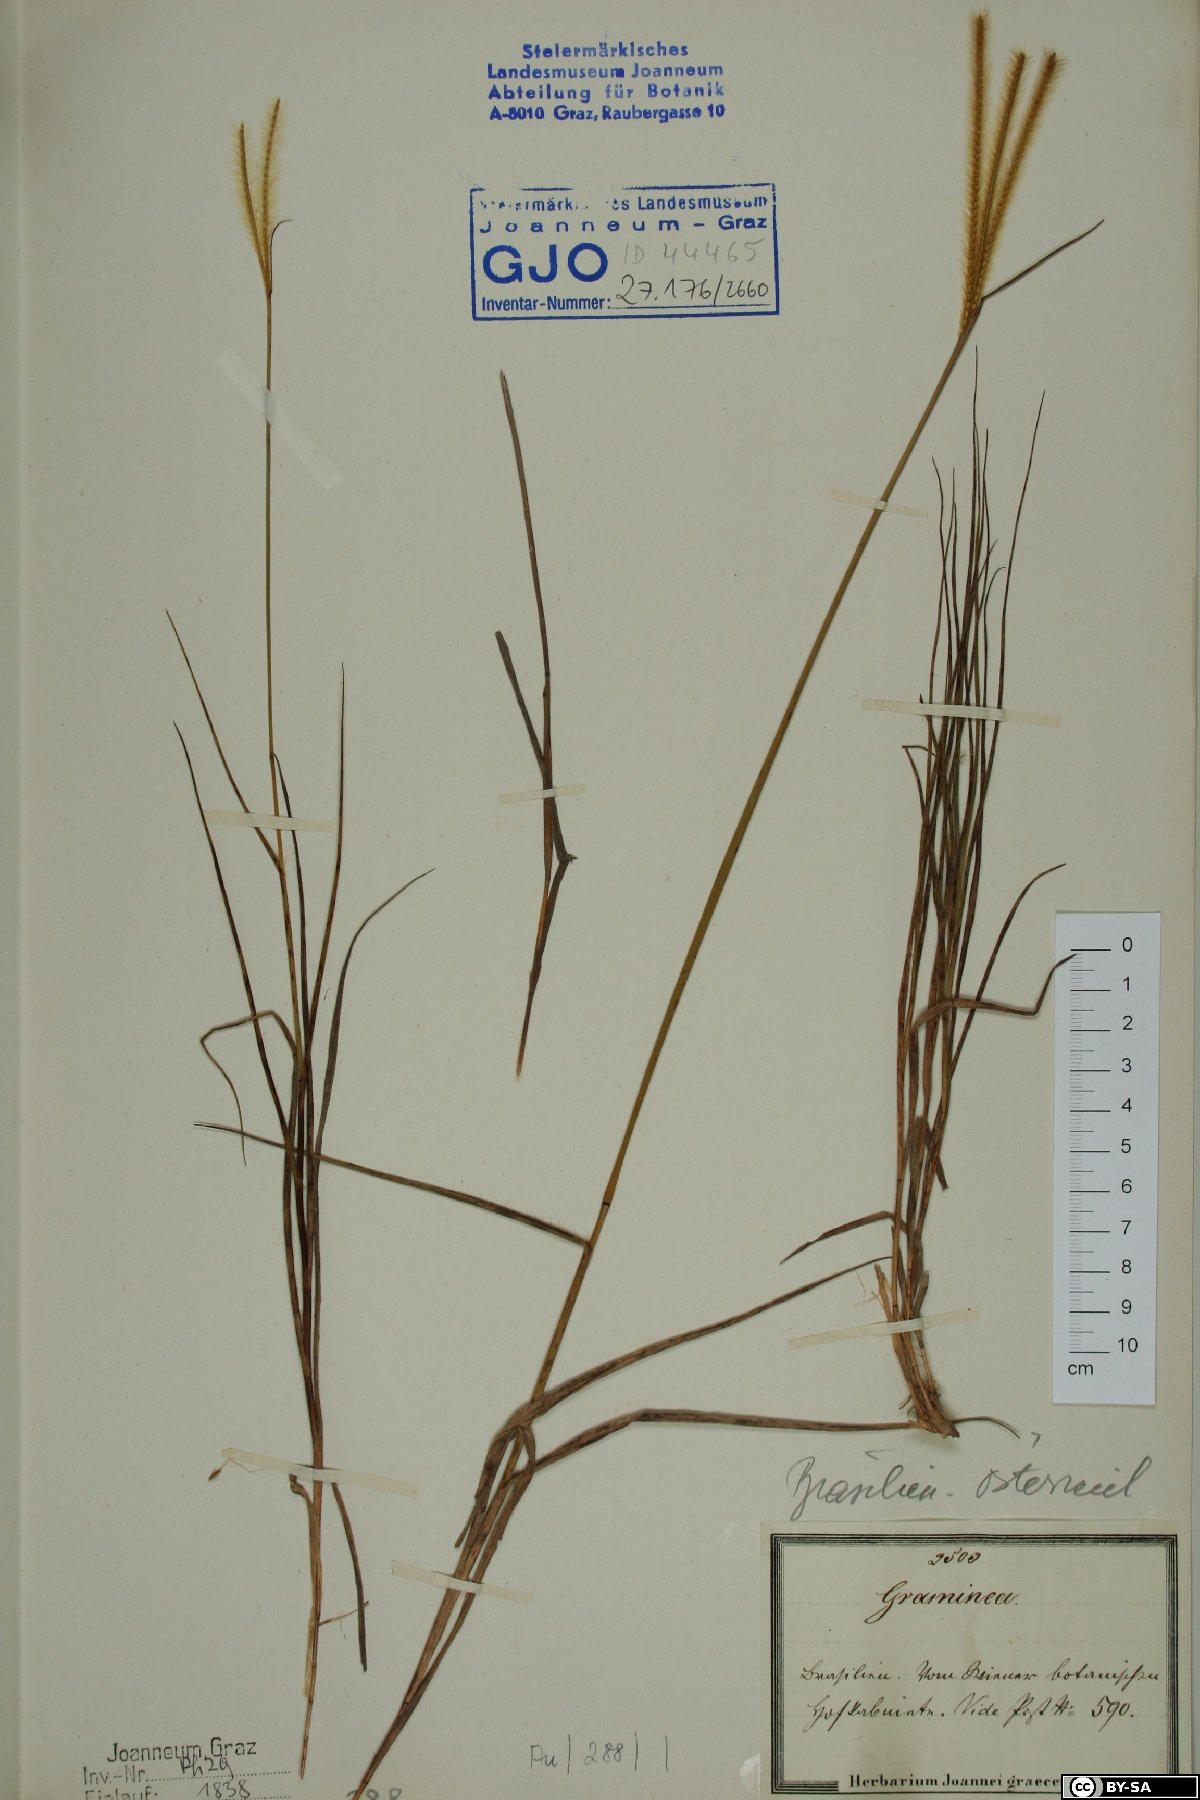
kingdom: Plantae
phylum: Tracheophyta
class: Liliopsida
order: Poales
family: Poaceae
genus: Chloris
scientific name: Chloris
